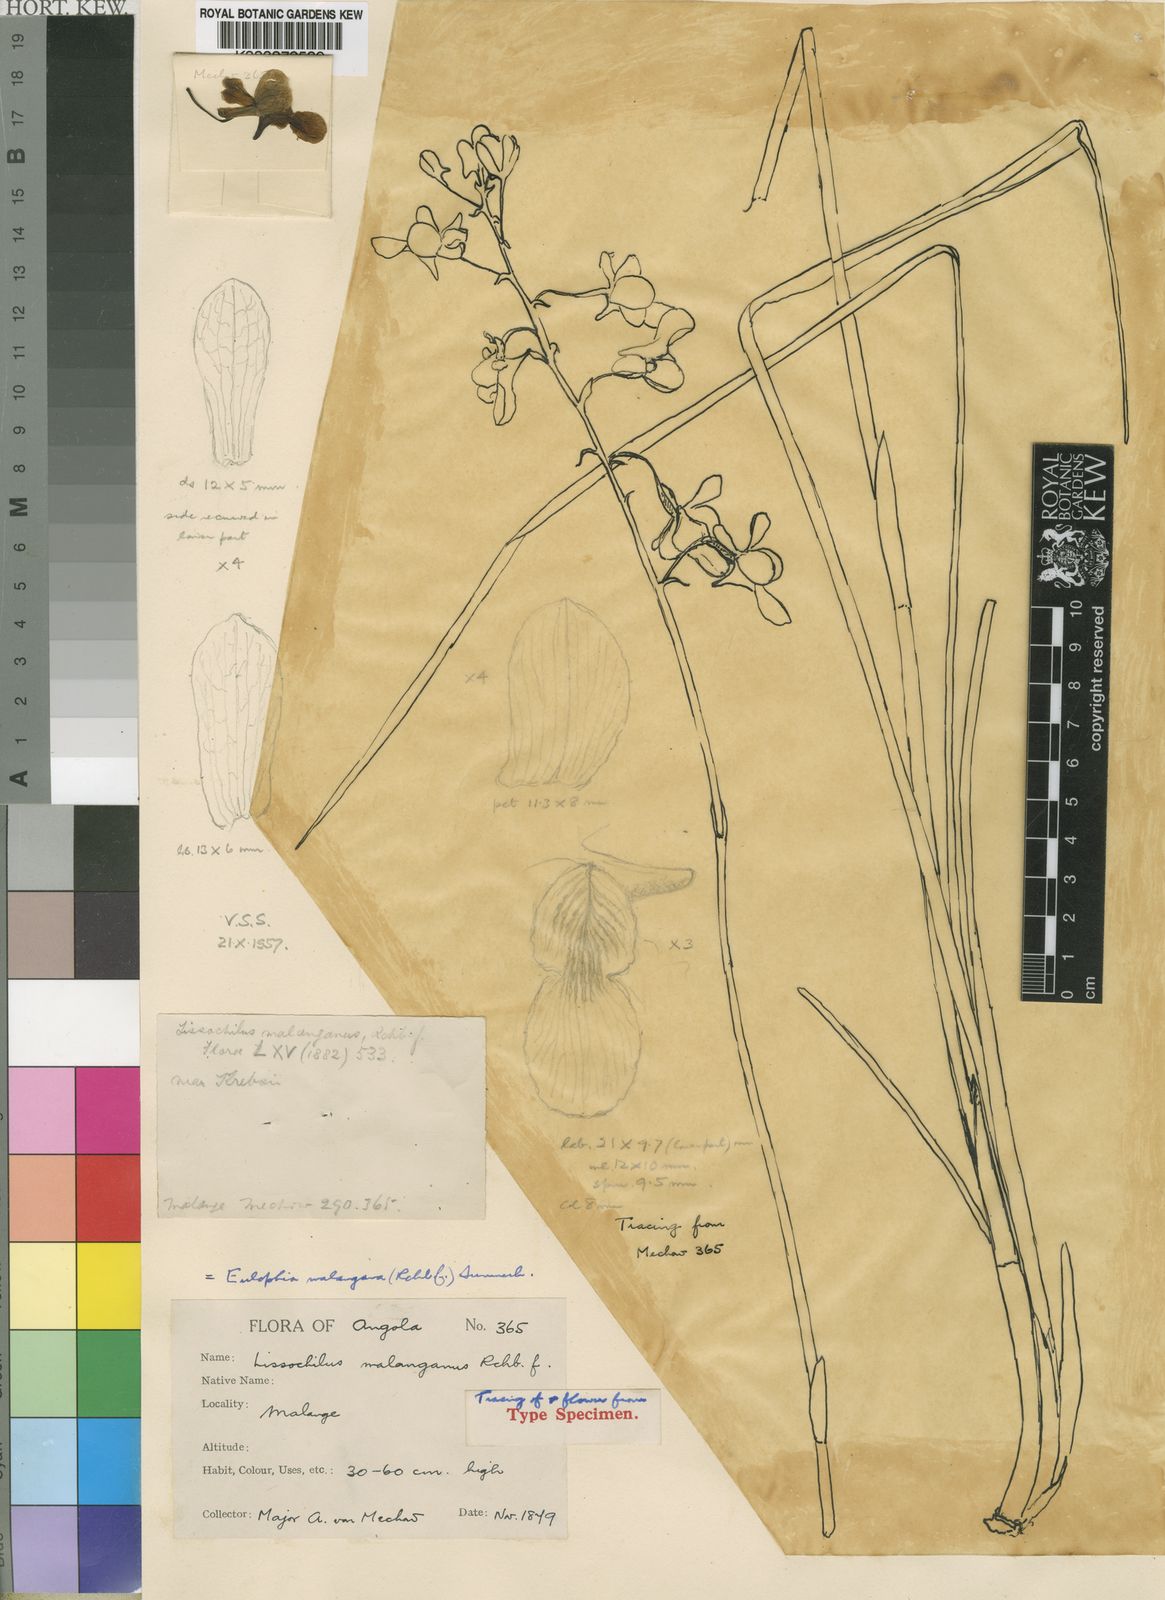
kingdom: Plantae
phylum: Tracheophyta
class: Liliopsida
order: Asparagales
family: Orchidaceae
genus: Eulophia
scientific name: Eulophia malangana
